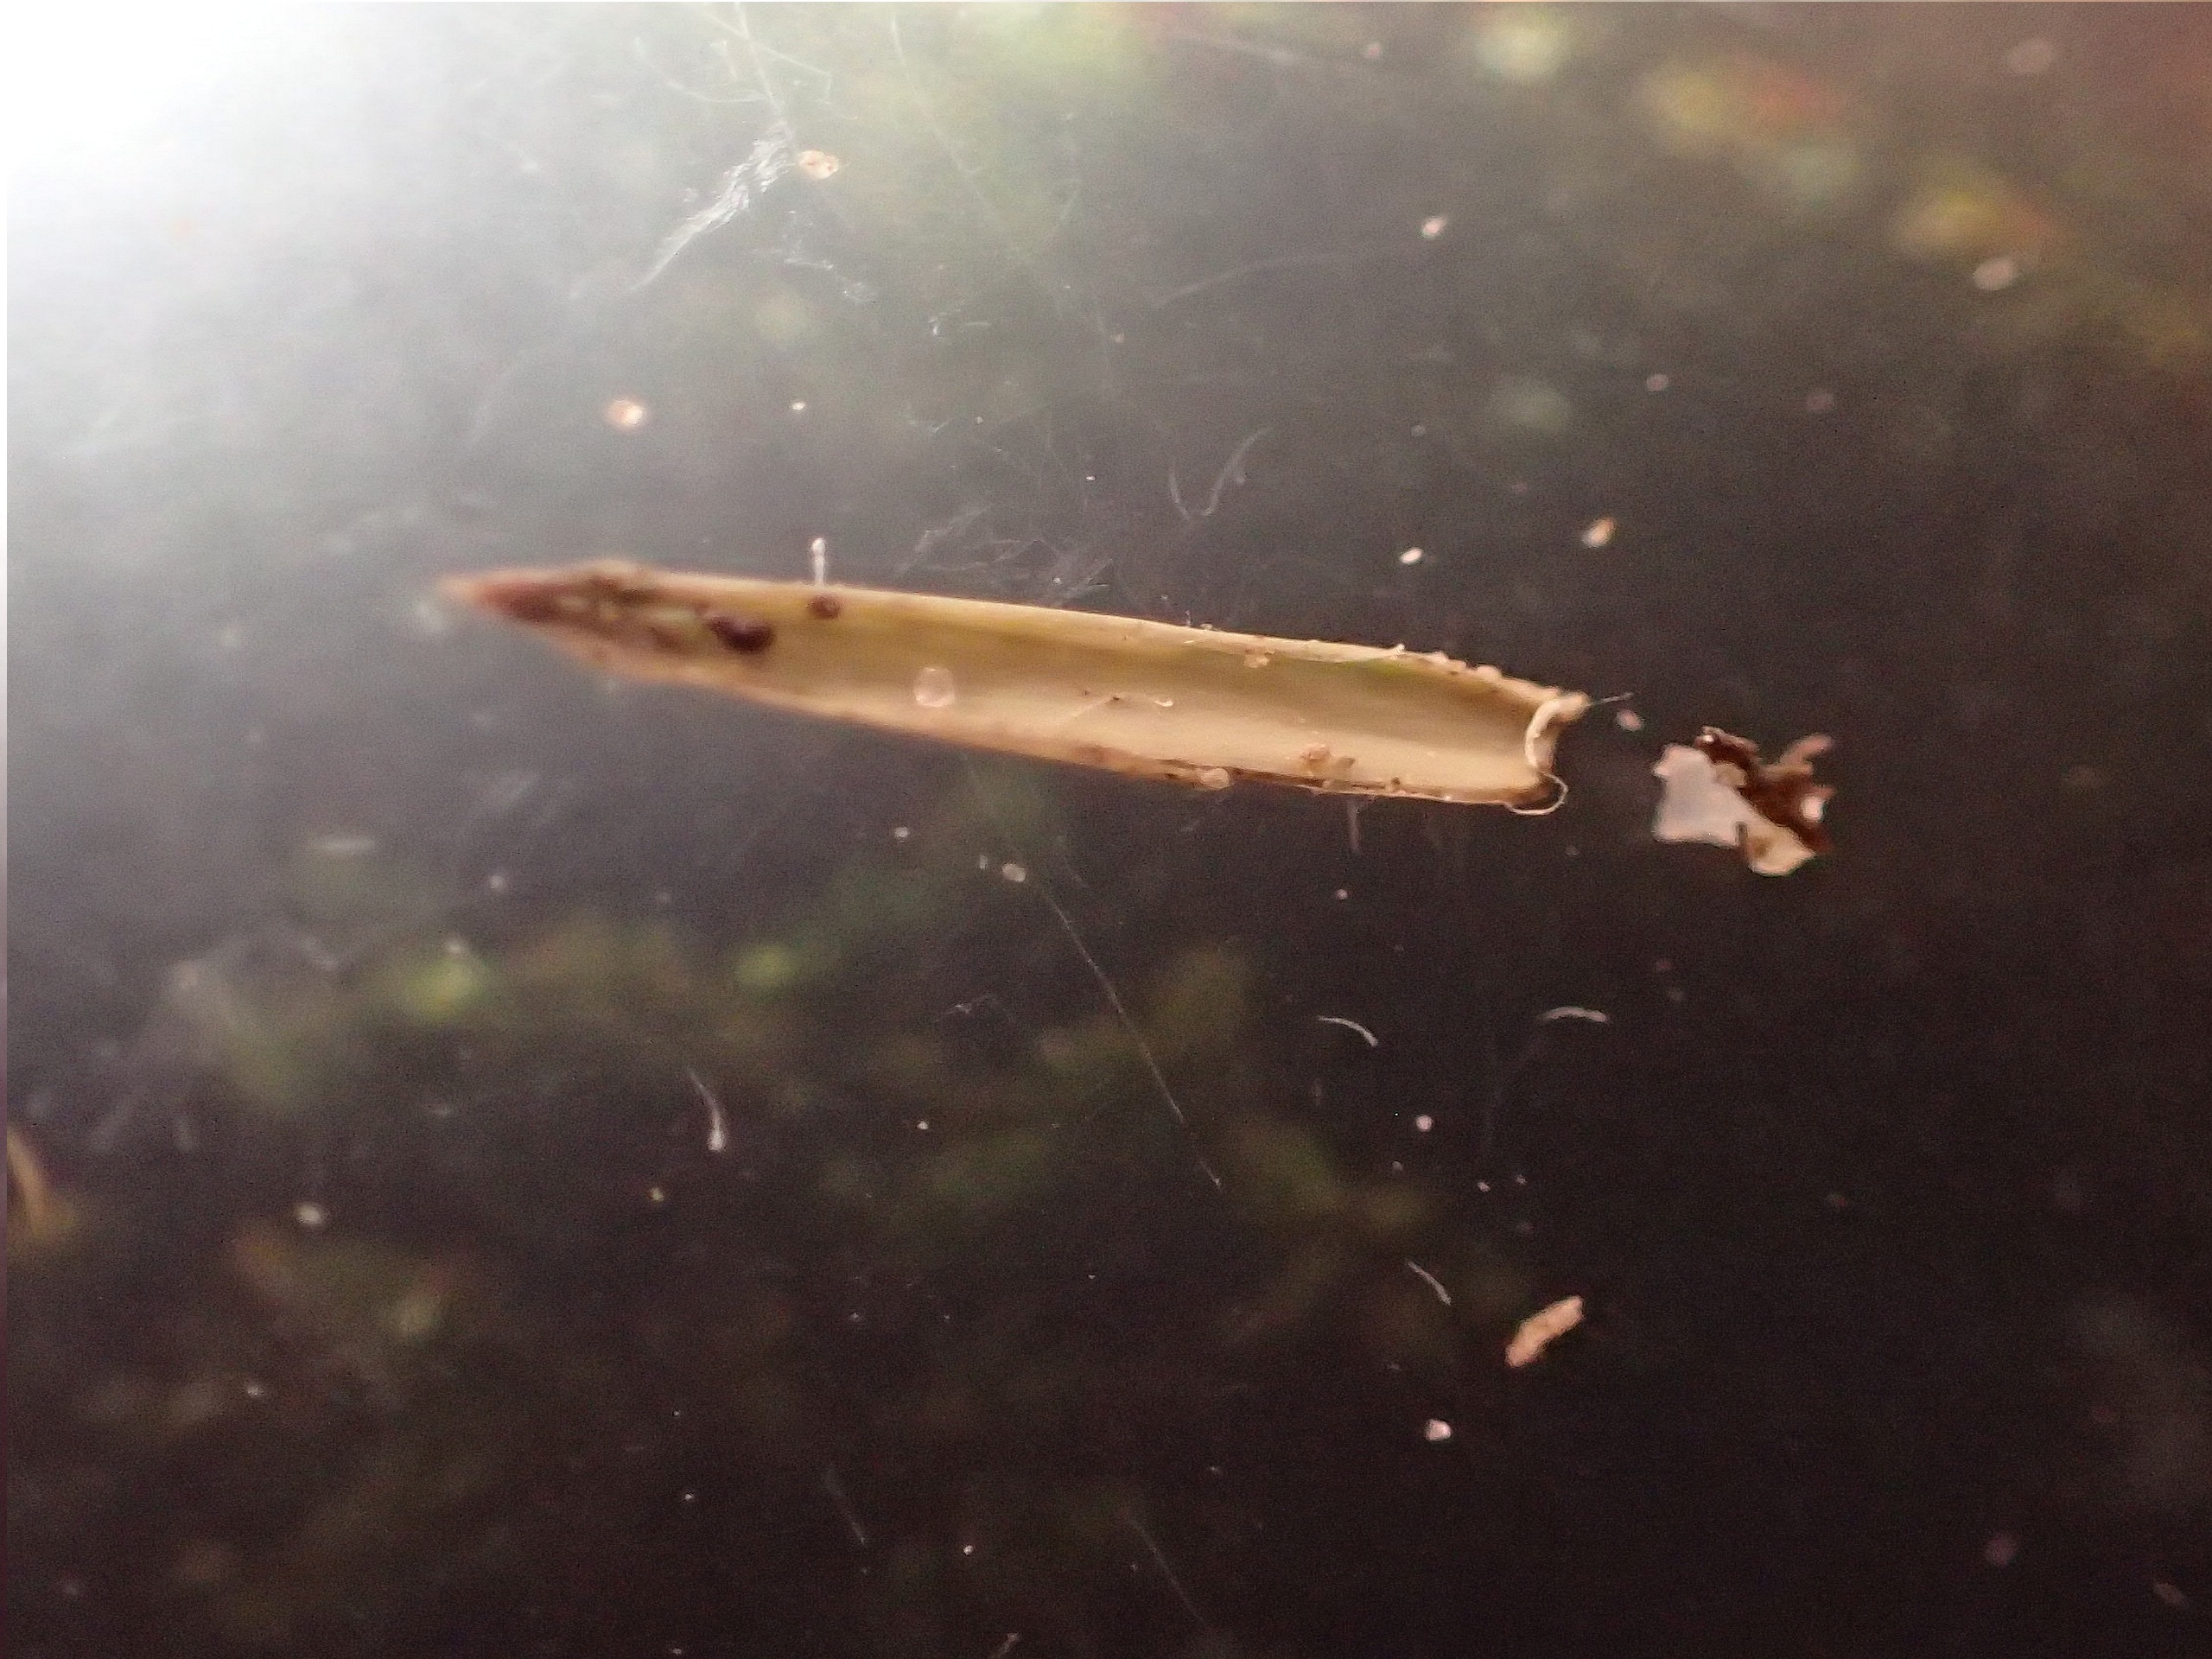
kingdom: Plantae
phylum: Tracheophyta
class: Magnoliopsida
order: Asterales
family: Asteraceae
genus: Crepis
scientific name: Crepis capillaris
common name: Grøn høgeskæg
